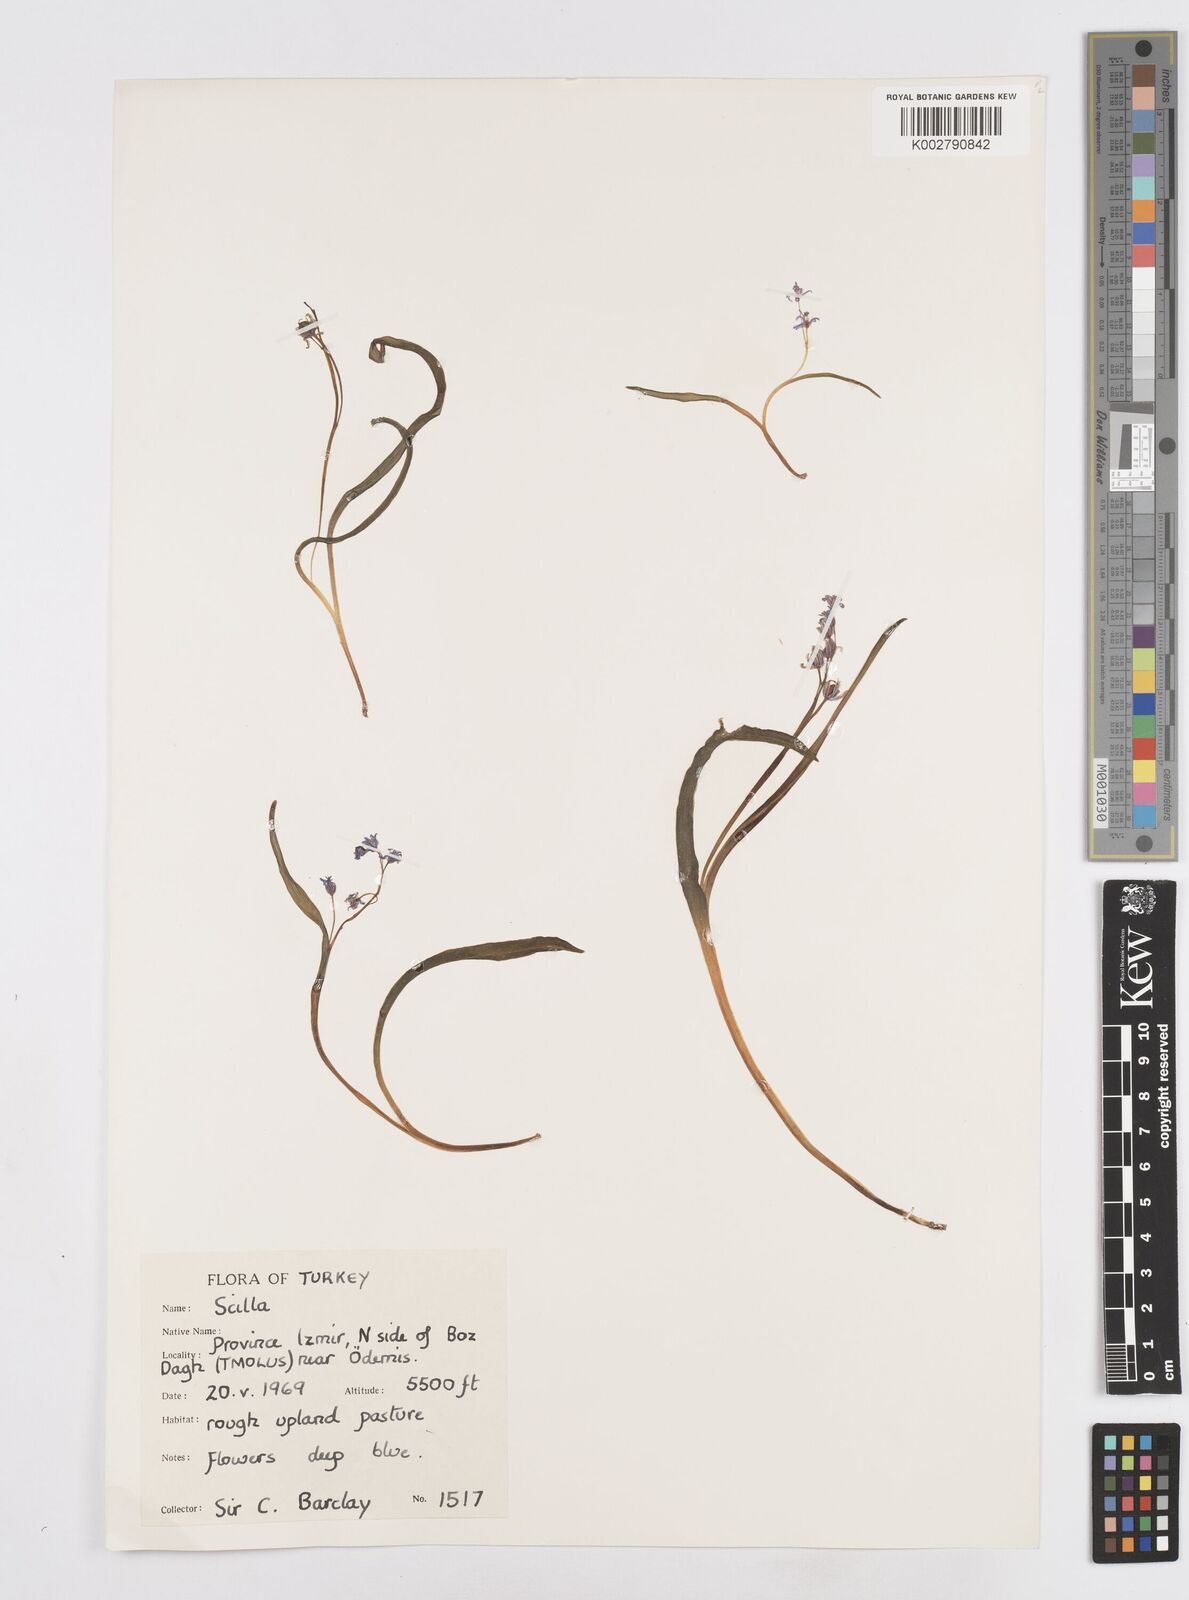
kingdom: Plantae
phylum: Tracheophyta
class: Liliopsida
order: Asparagales
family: Asparagaceae
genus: Scilla
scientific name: Scilla bifolia
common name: Alpine squill
